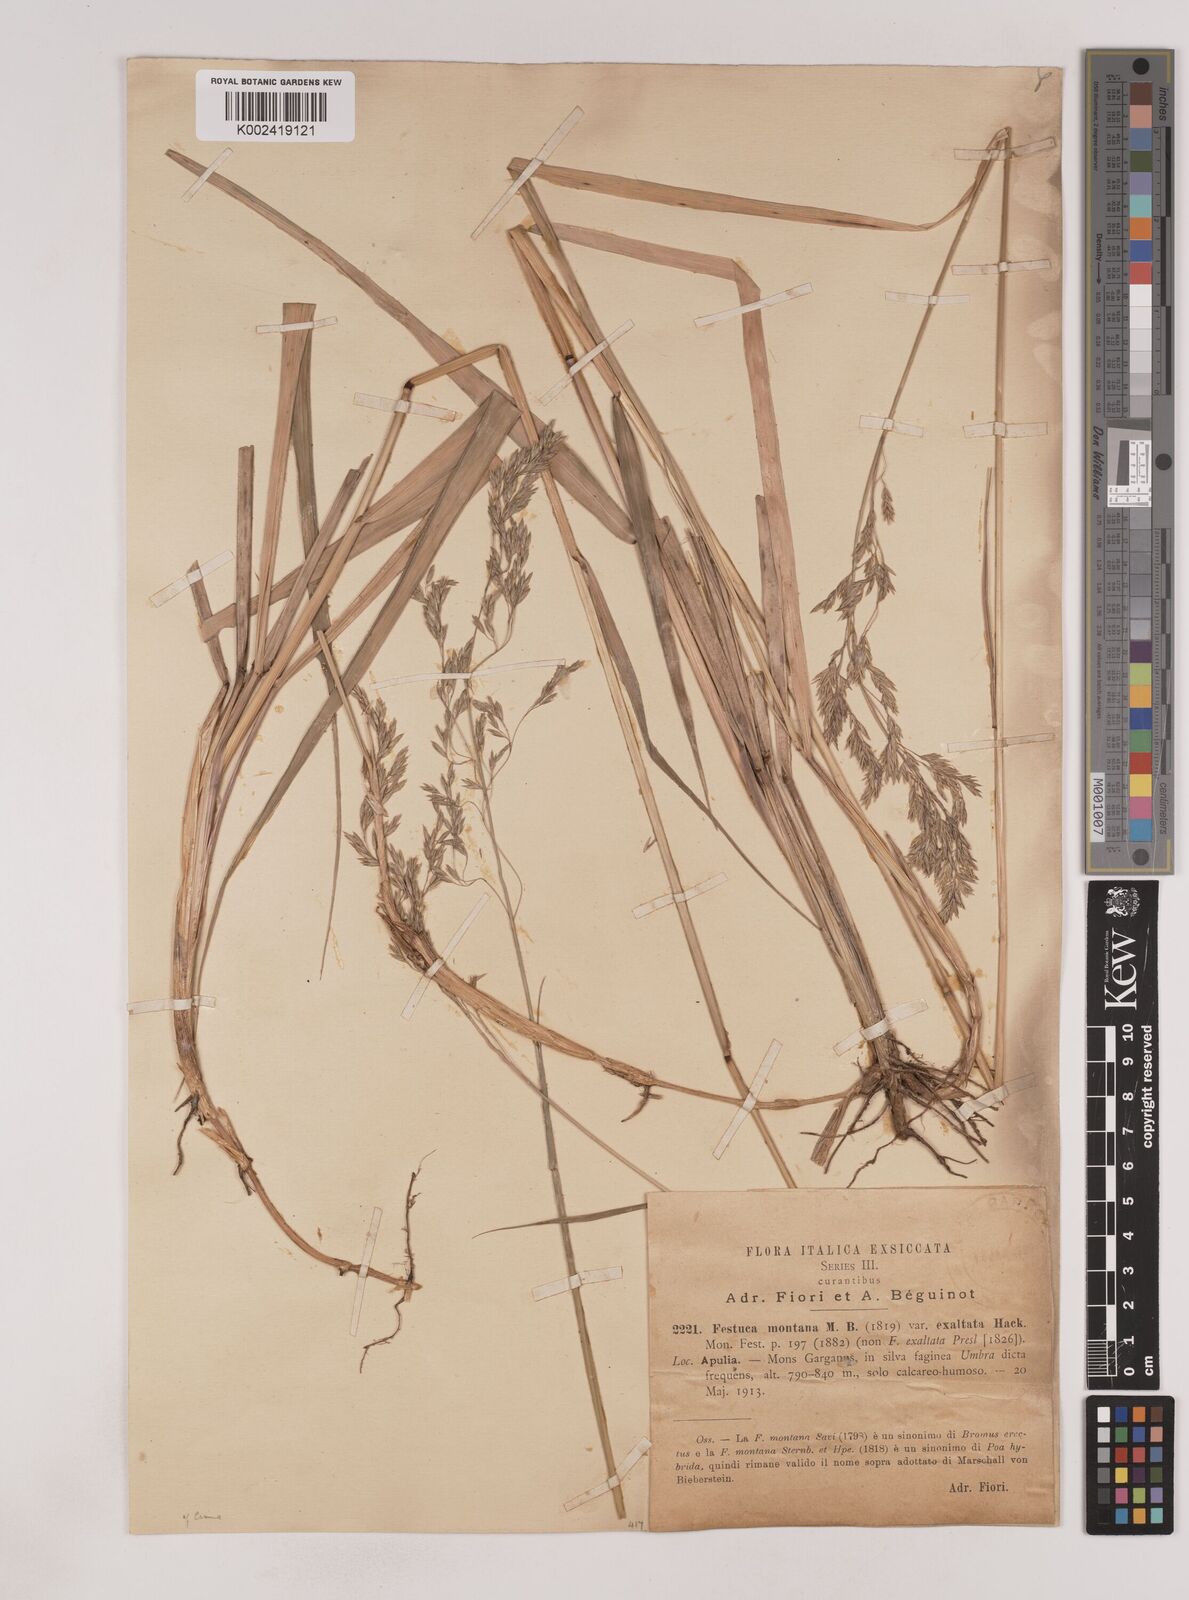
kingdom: Plantae
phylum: Tracheophyta
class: Liliopsida
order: Poales
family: Poaceae
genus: Festuca
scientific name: Festuca drymeja
